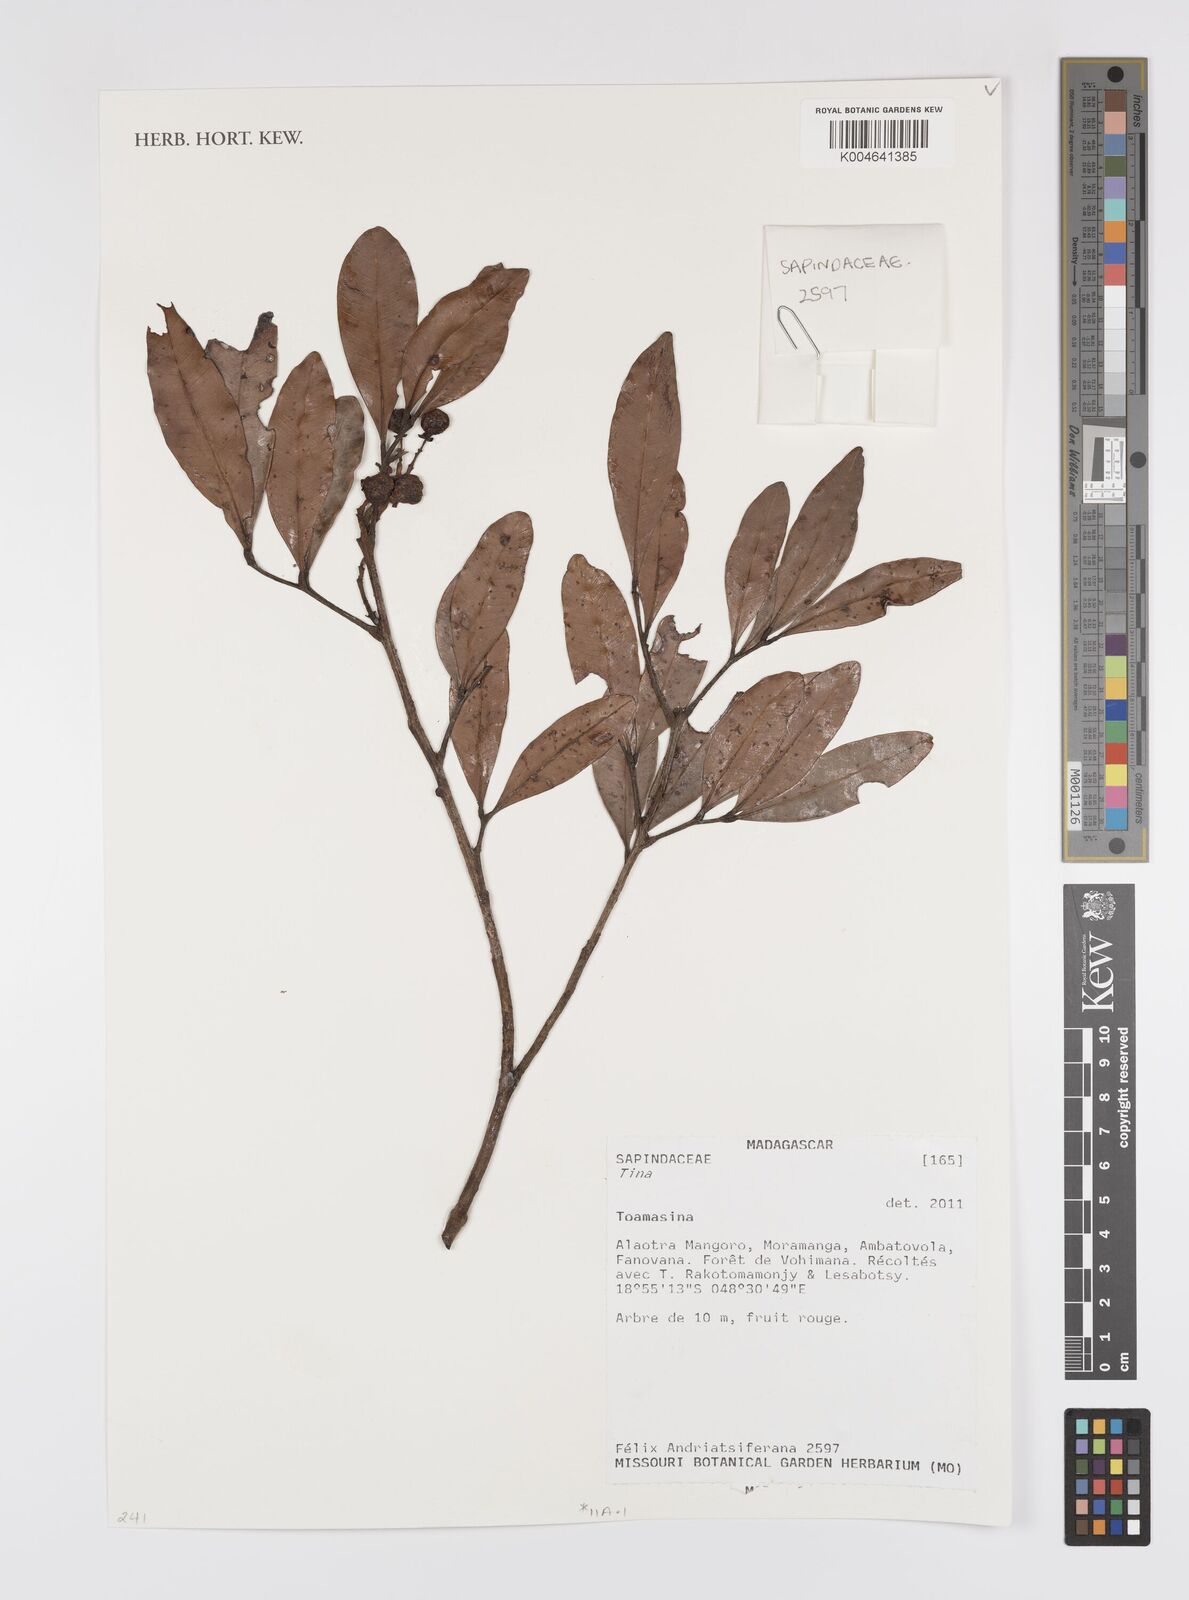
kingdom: Plantae
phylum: Tracheophyta
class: Magnoliopsida
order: Sapindales
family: Sapindaceae
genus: Tina
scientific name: Tina
